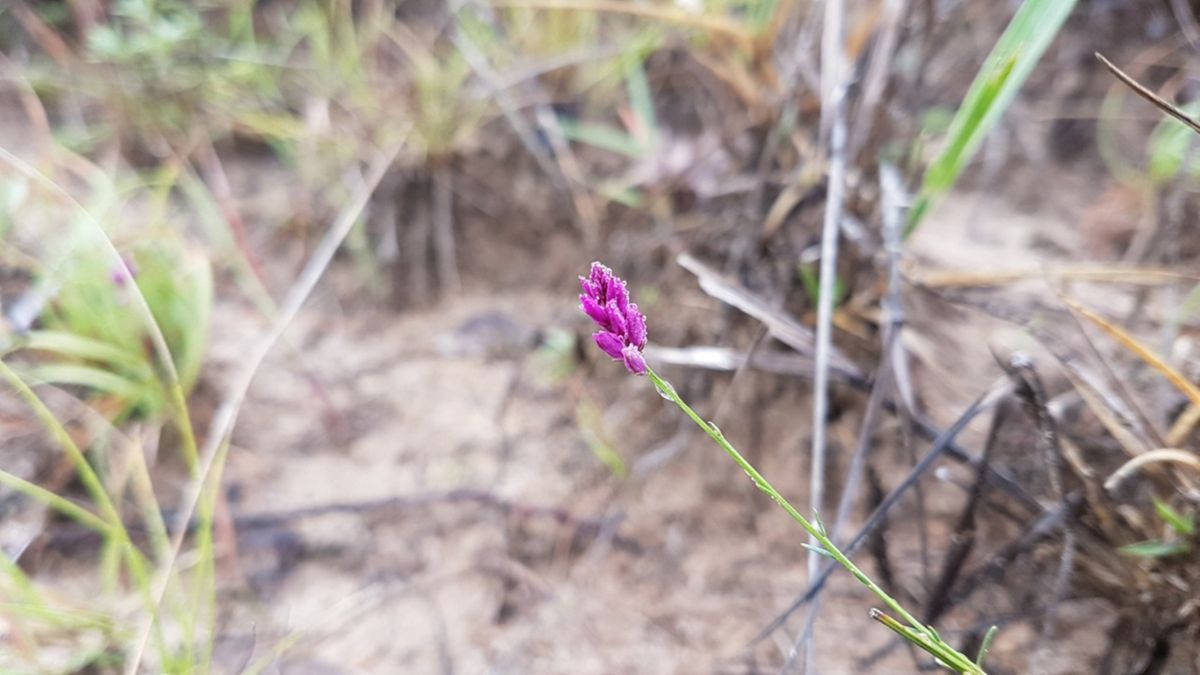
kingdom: Plantae
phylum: Tracheophyta
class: Magnoliopsida
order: Fabales
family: Polygalaceae
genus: Polygala
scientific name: Polygala trichosperma
